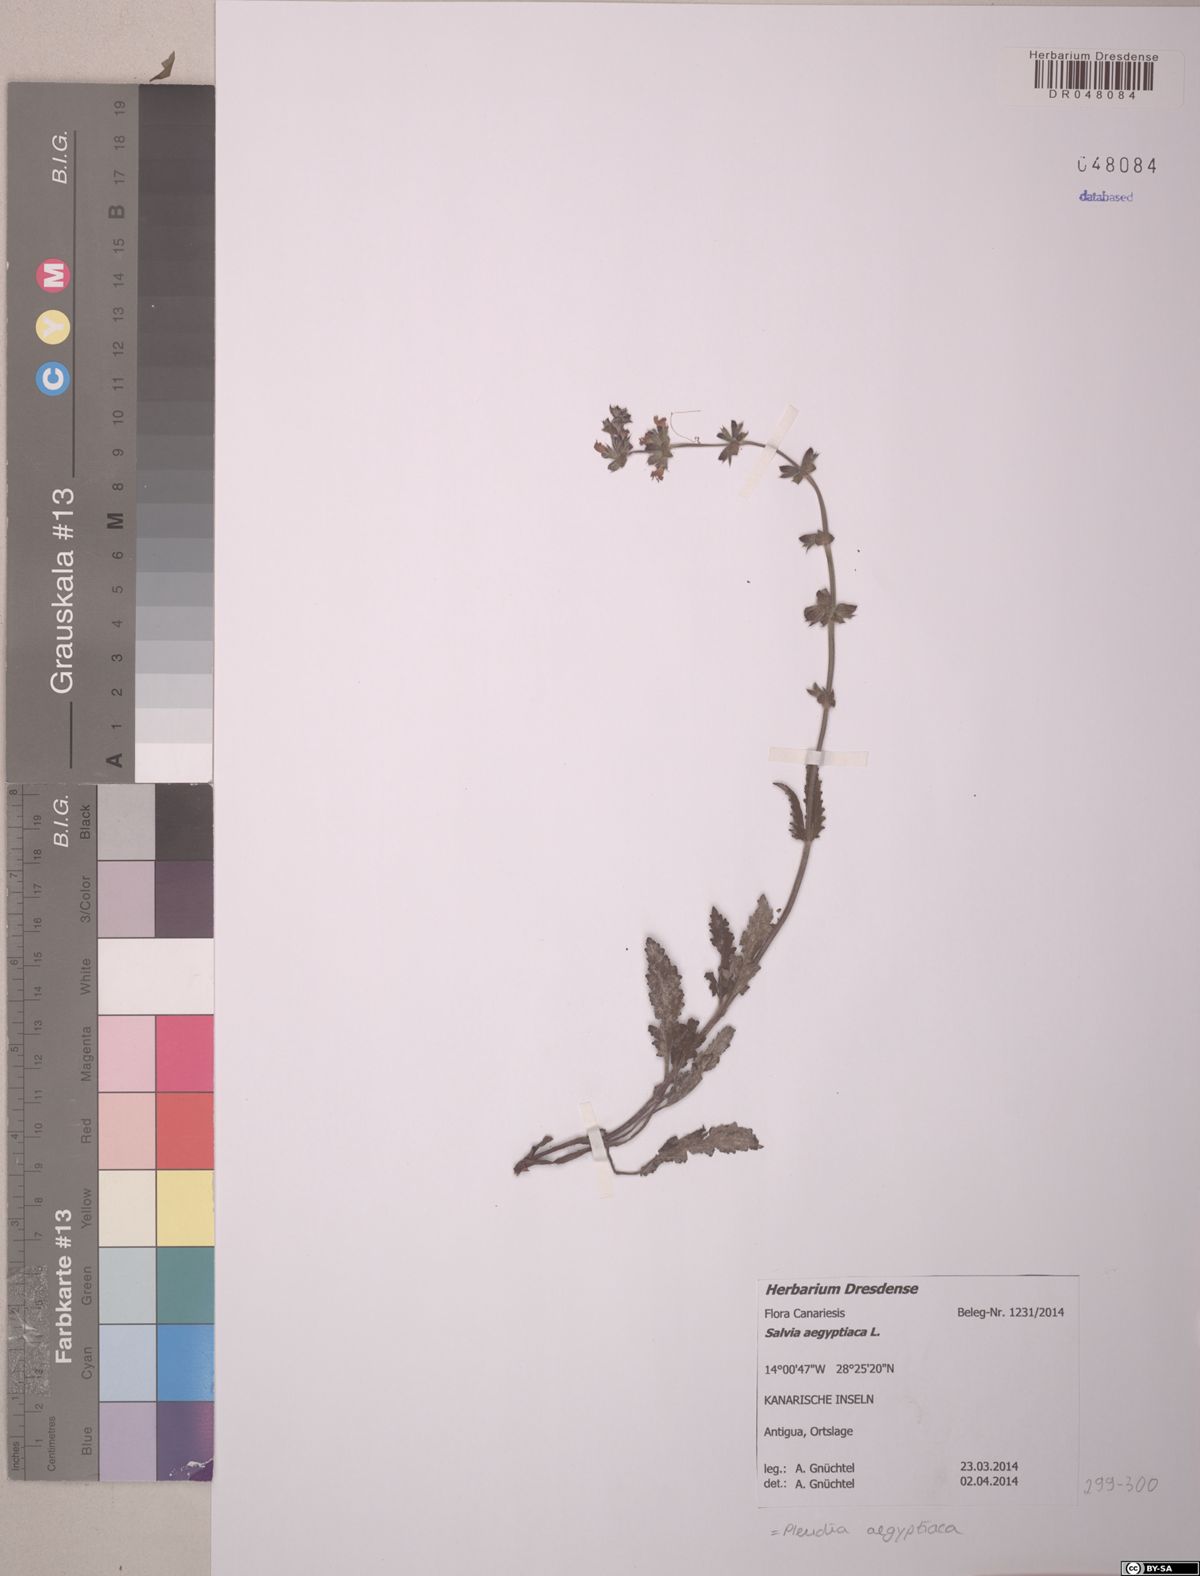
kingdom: Plantae
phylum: Tracheophyta
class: Magnoliopsida
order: Lamiales
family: Lamiaceae
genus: Salvia
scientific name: Salvia aegyptiaca
